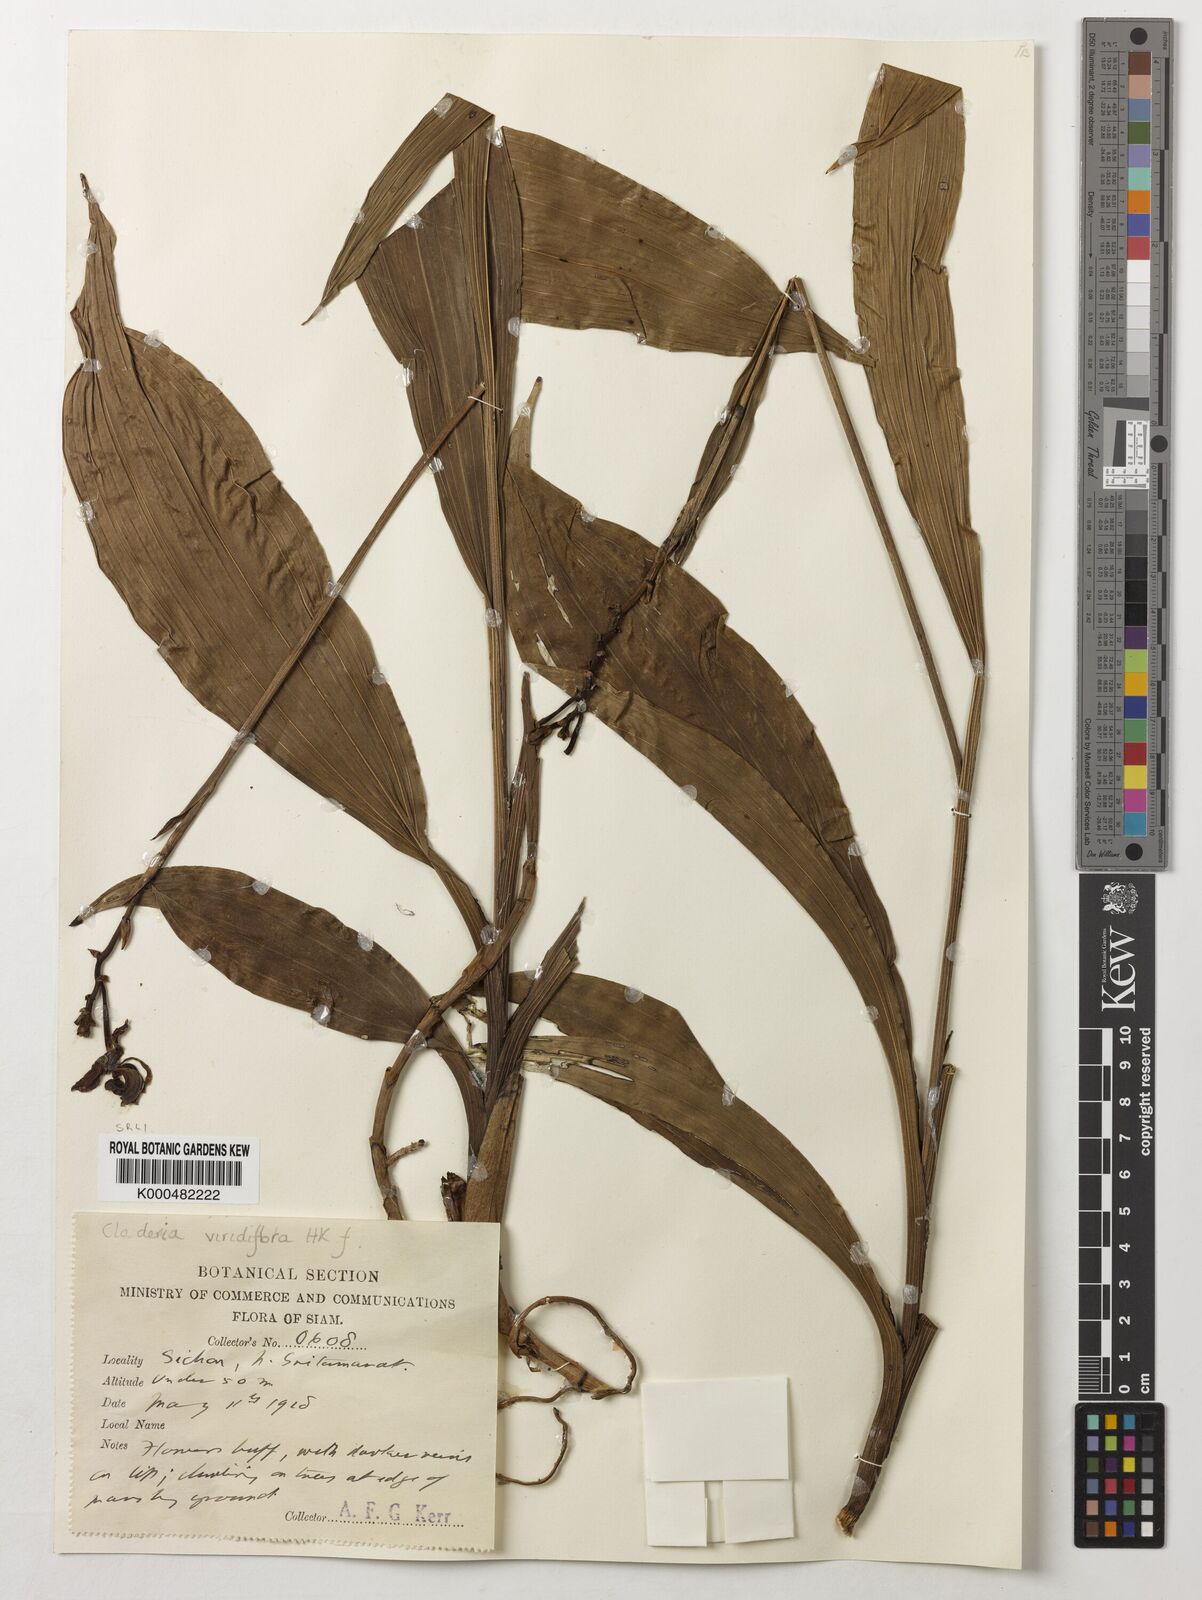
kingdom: Plantae
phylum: Tracheophyta
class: Liliopsida
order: Asparagales
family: Orchidaceae
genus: Claderia
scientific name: Claderia
